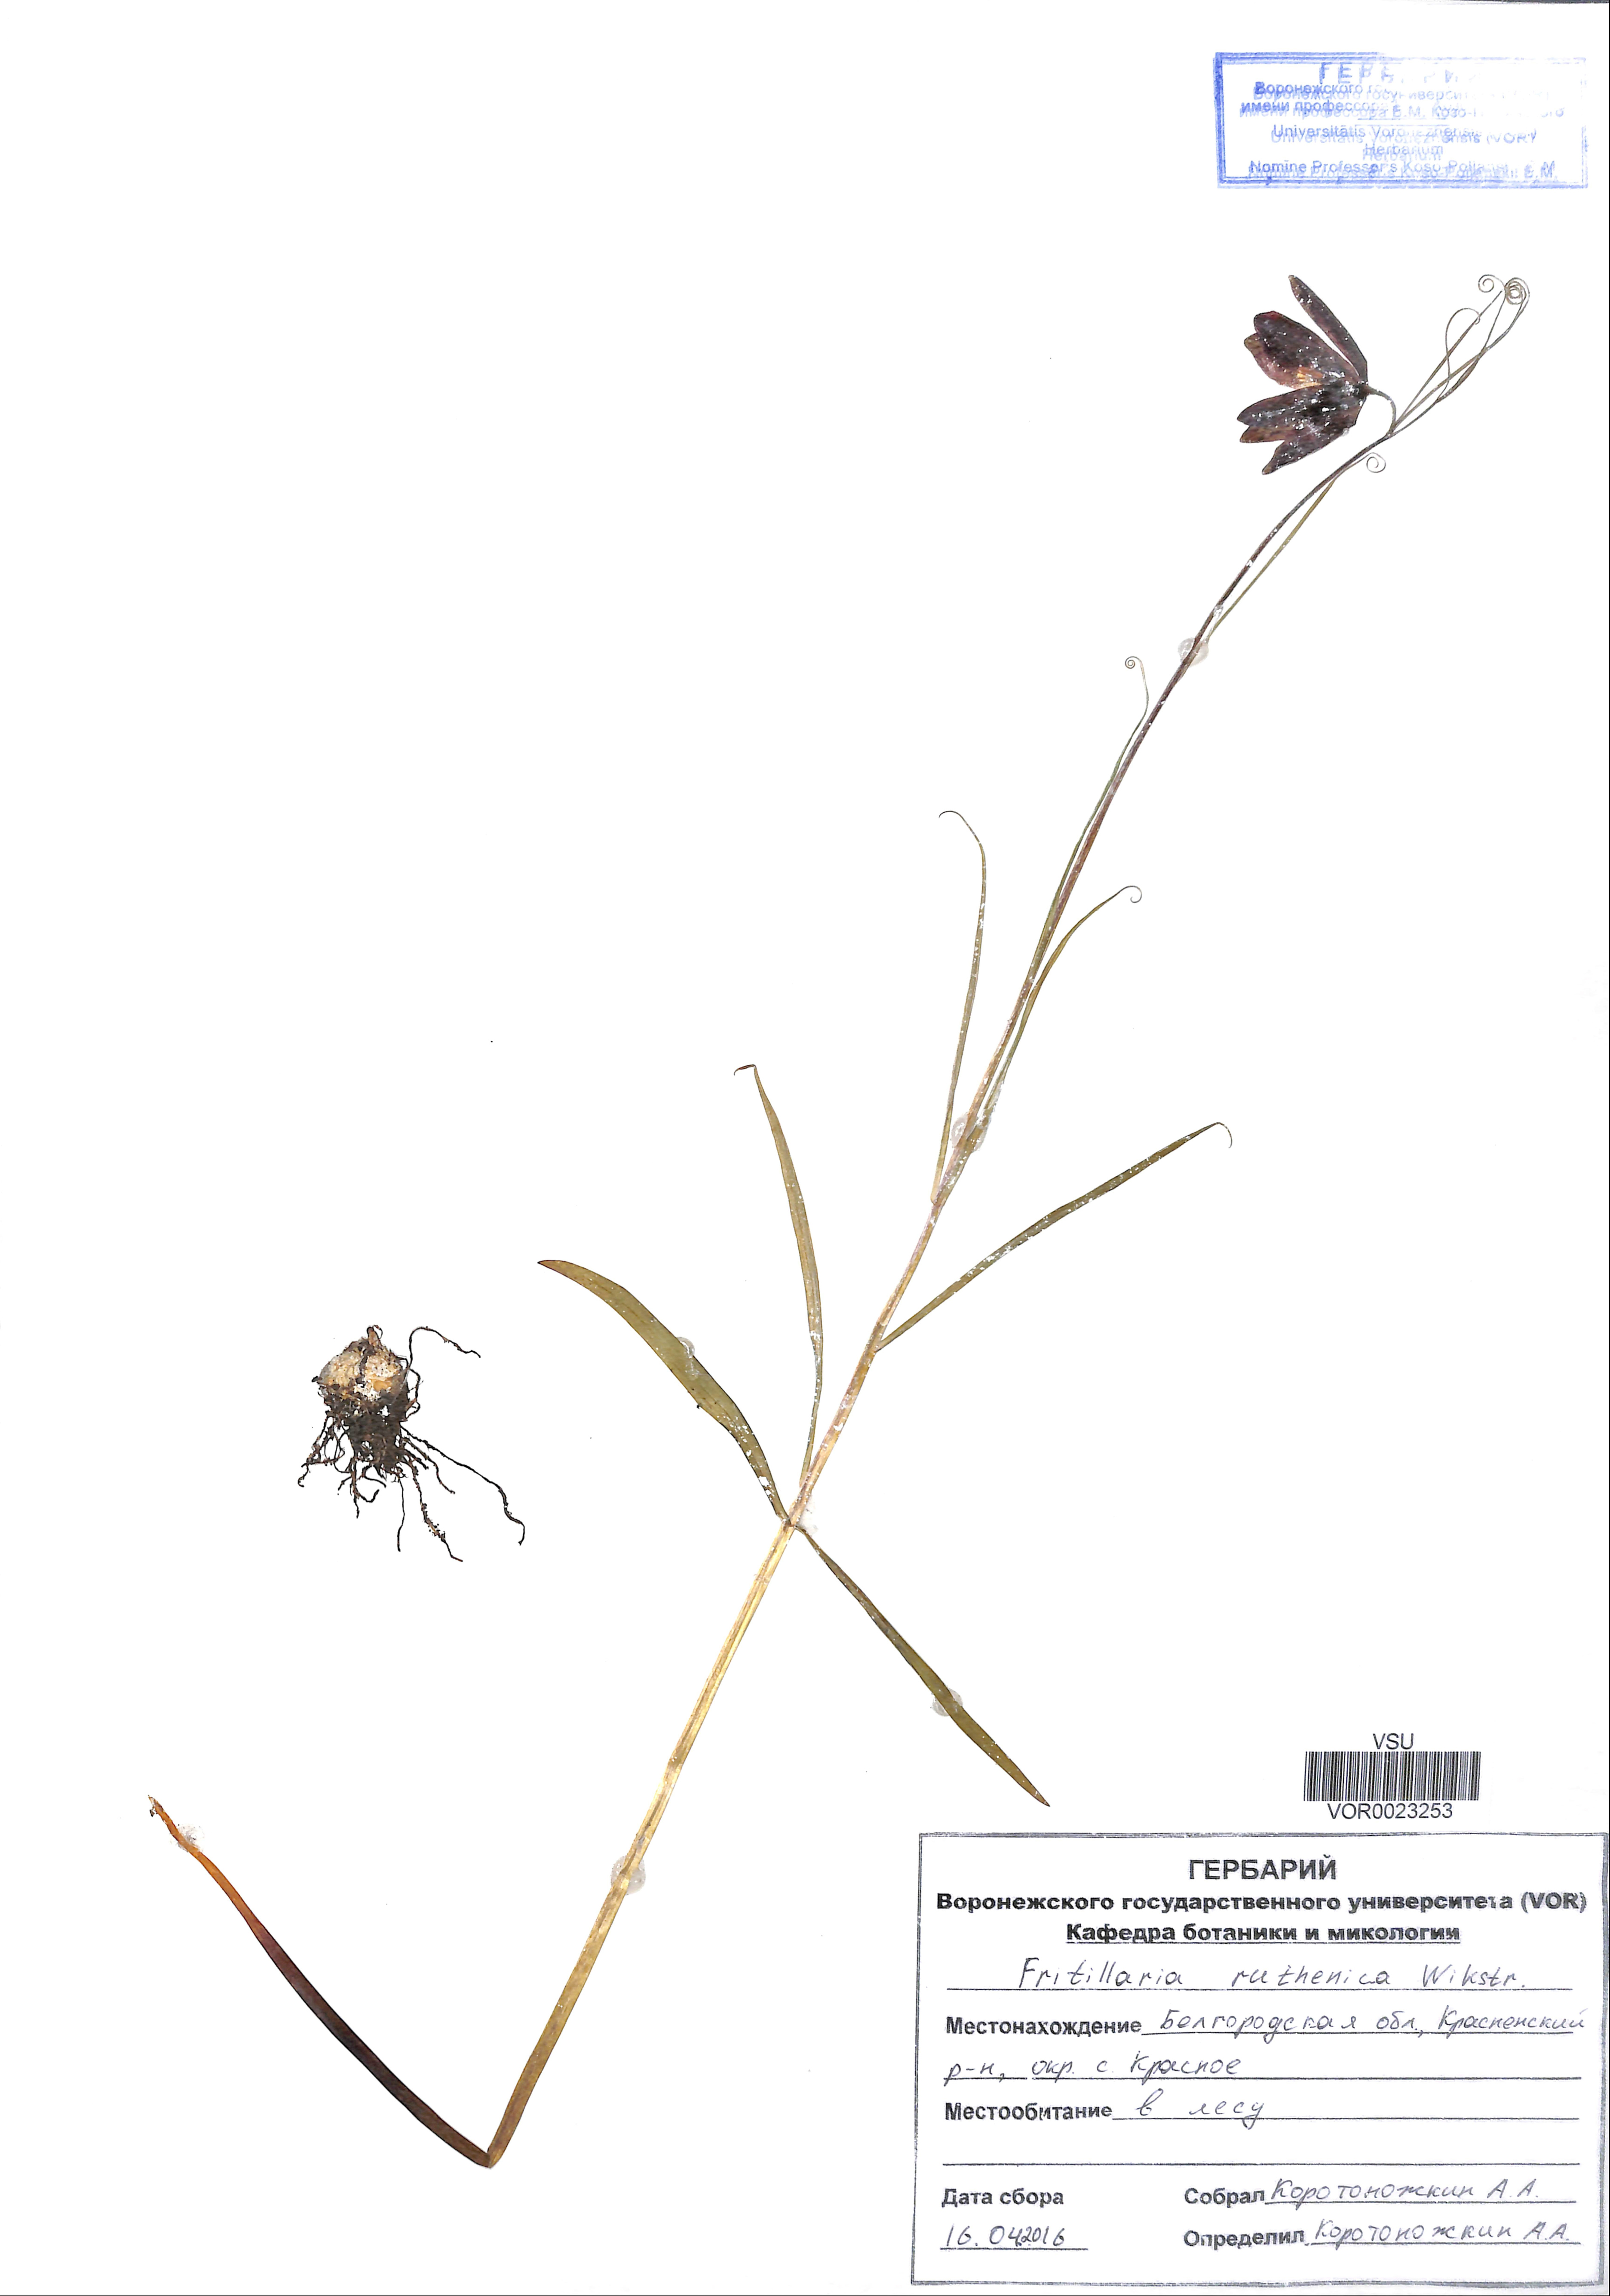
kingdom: Plantae
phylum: Tracheophyta
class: Liliopsida
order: Liliales
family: Liliaceae
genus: Fritillaria
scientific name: Fritillaria ruthenica
